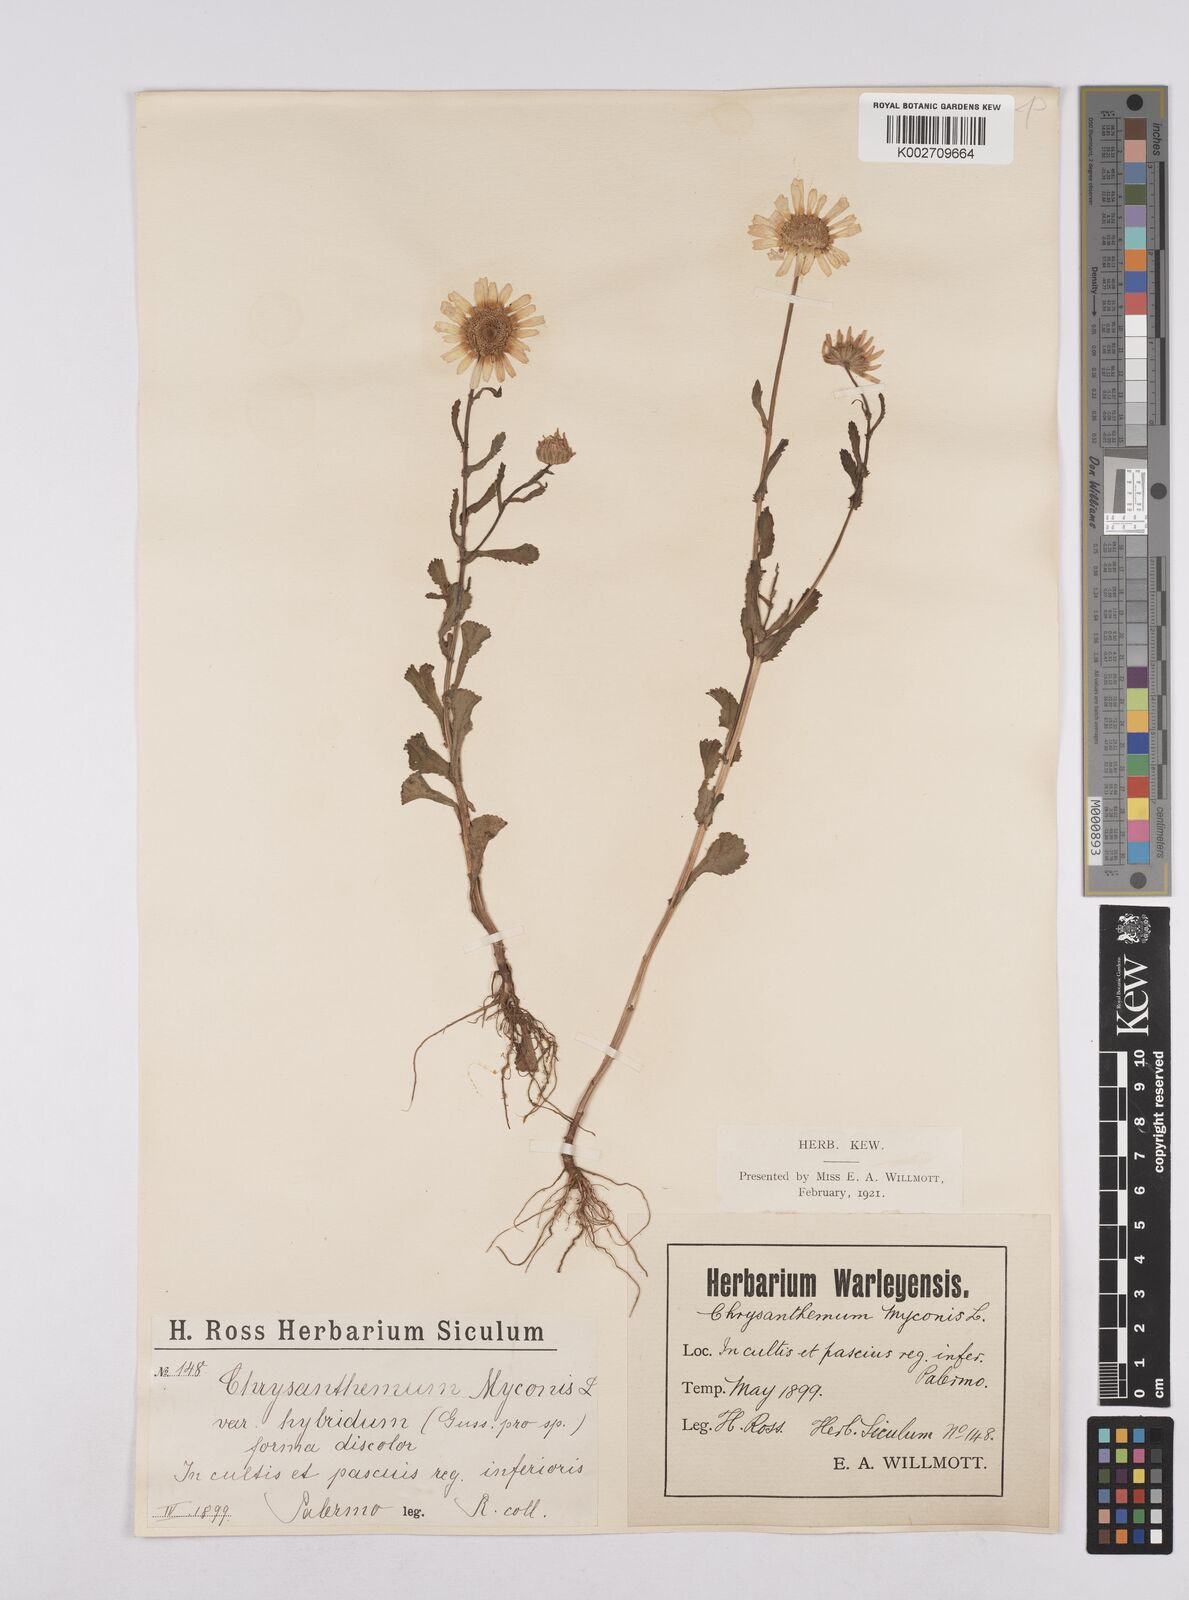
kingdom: Plantae
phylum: Tracheophyta
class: Magnoliopsida
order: Asterales
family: Asteraceae
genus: Coleostephus
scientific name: Coleostephus paludosus
